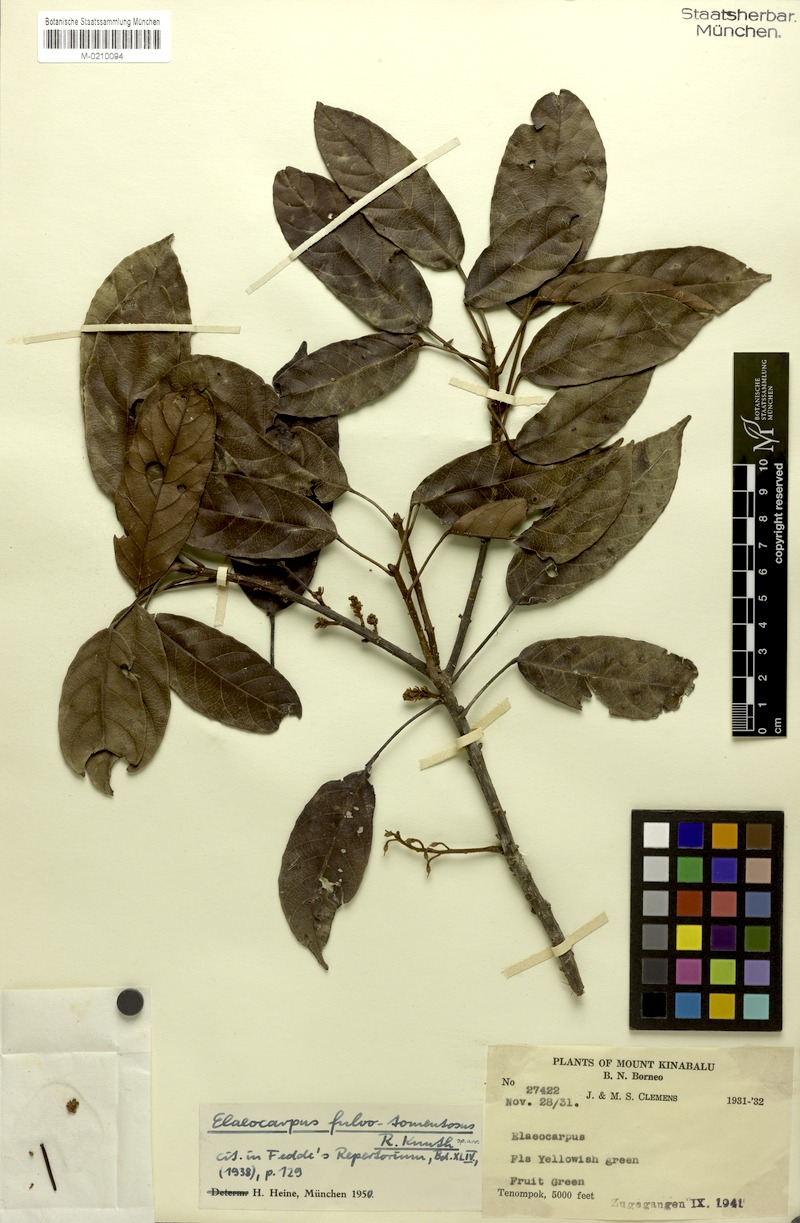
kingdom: Plantae
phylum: Tracheophyta
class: Magnoliopsida
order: Oxalidales
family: Elaeocarpaceae
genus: Elaeocarpus
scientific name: Elaeocarpus ferrugineus
